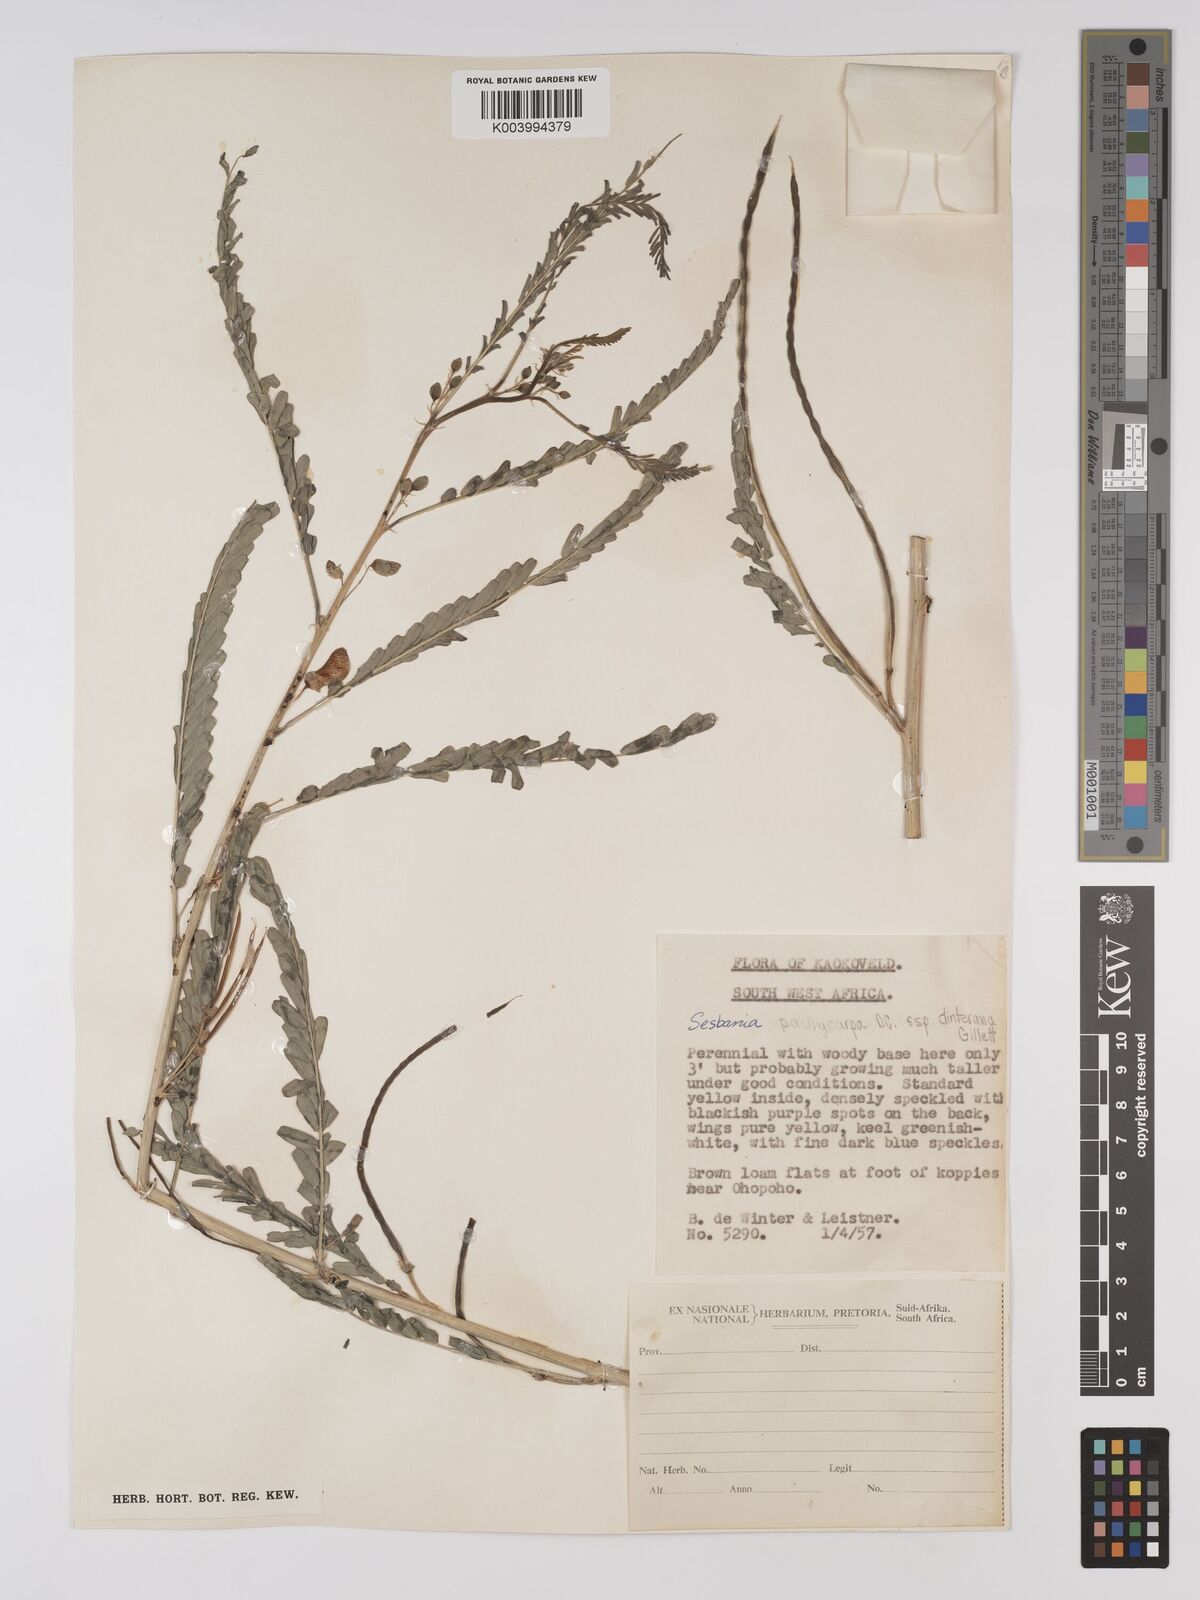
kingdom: Plantae
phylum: Tracheophyta
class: Magnoliopsida
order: Fabales
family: Fabaceae
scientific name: Fabaceae
